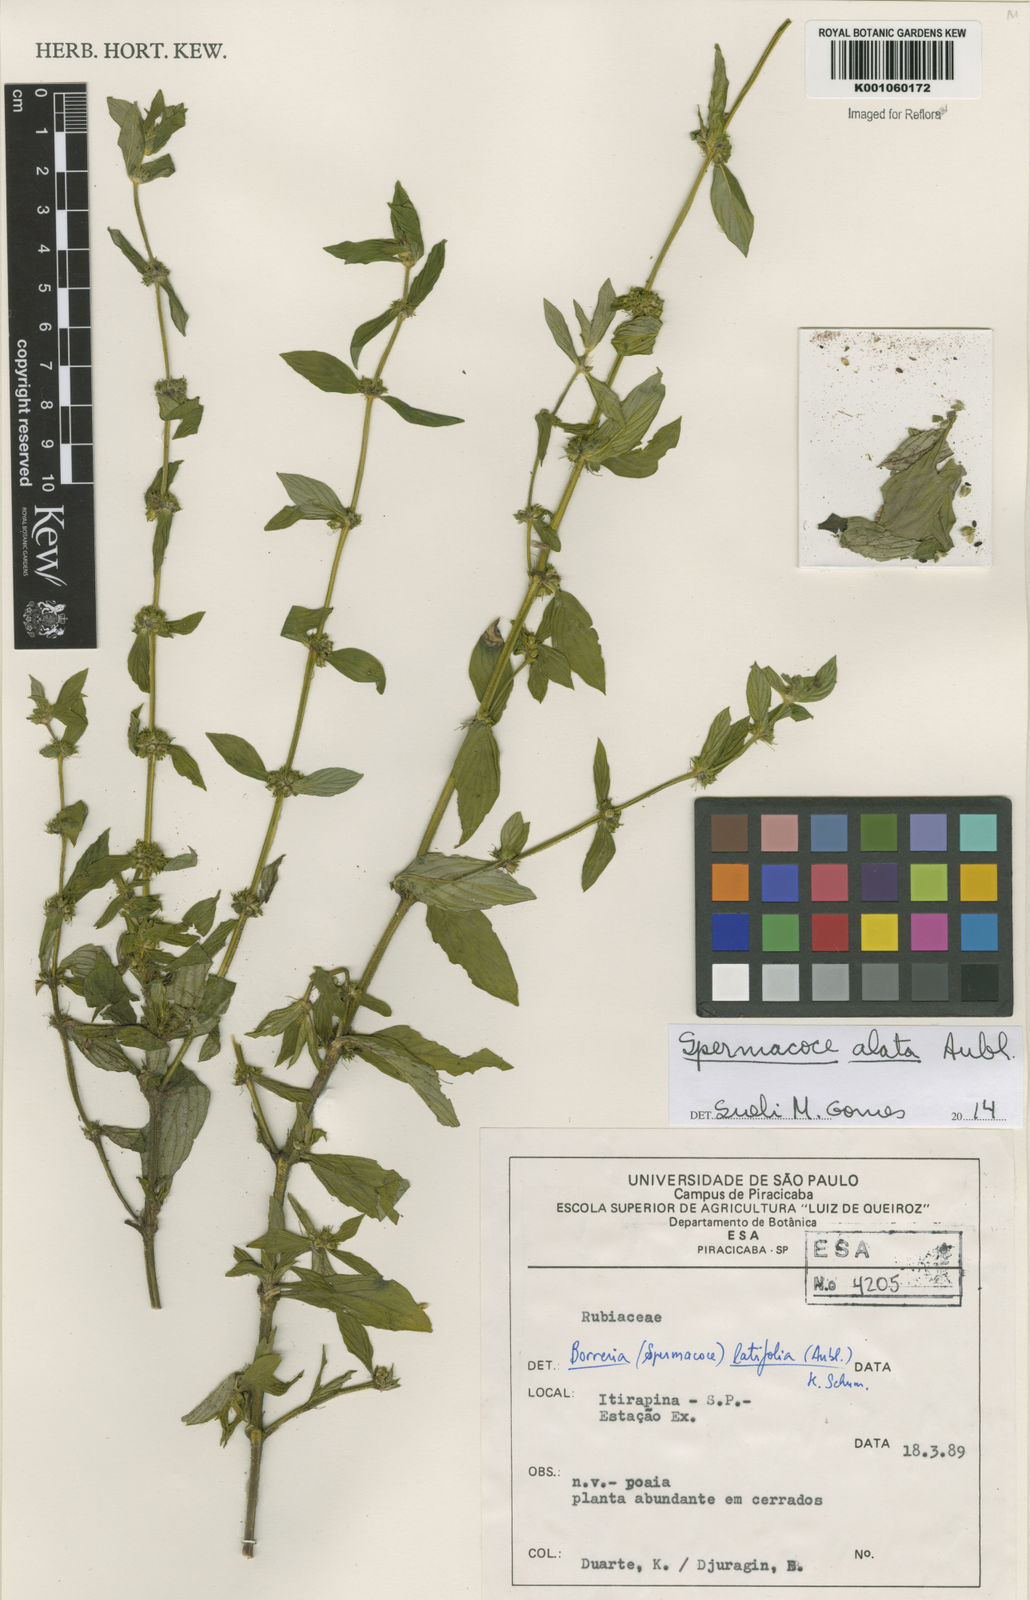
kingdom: Plantae
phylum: Tracheophyta
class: Magnoliopsida
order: Gentianales
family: Rubiaceae
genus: Spermacoce
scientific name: Spermacoce
